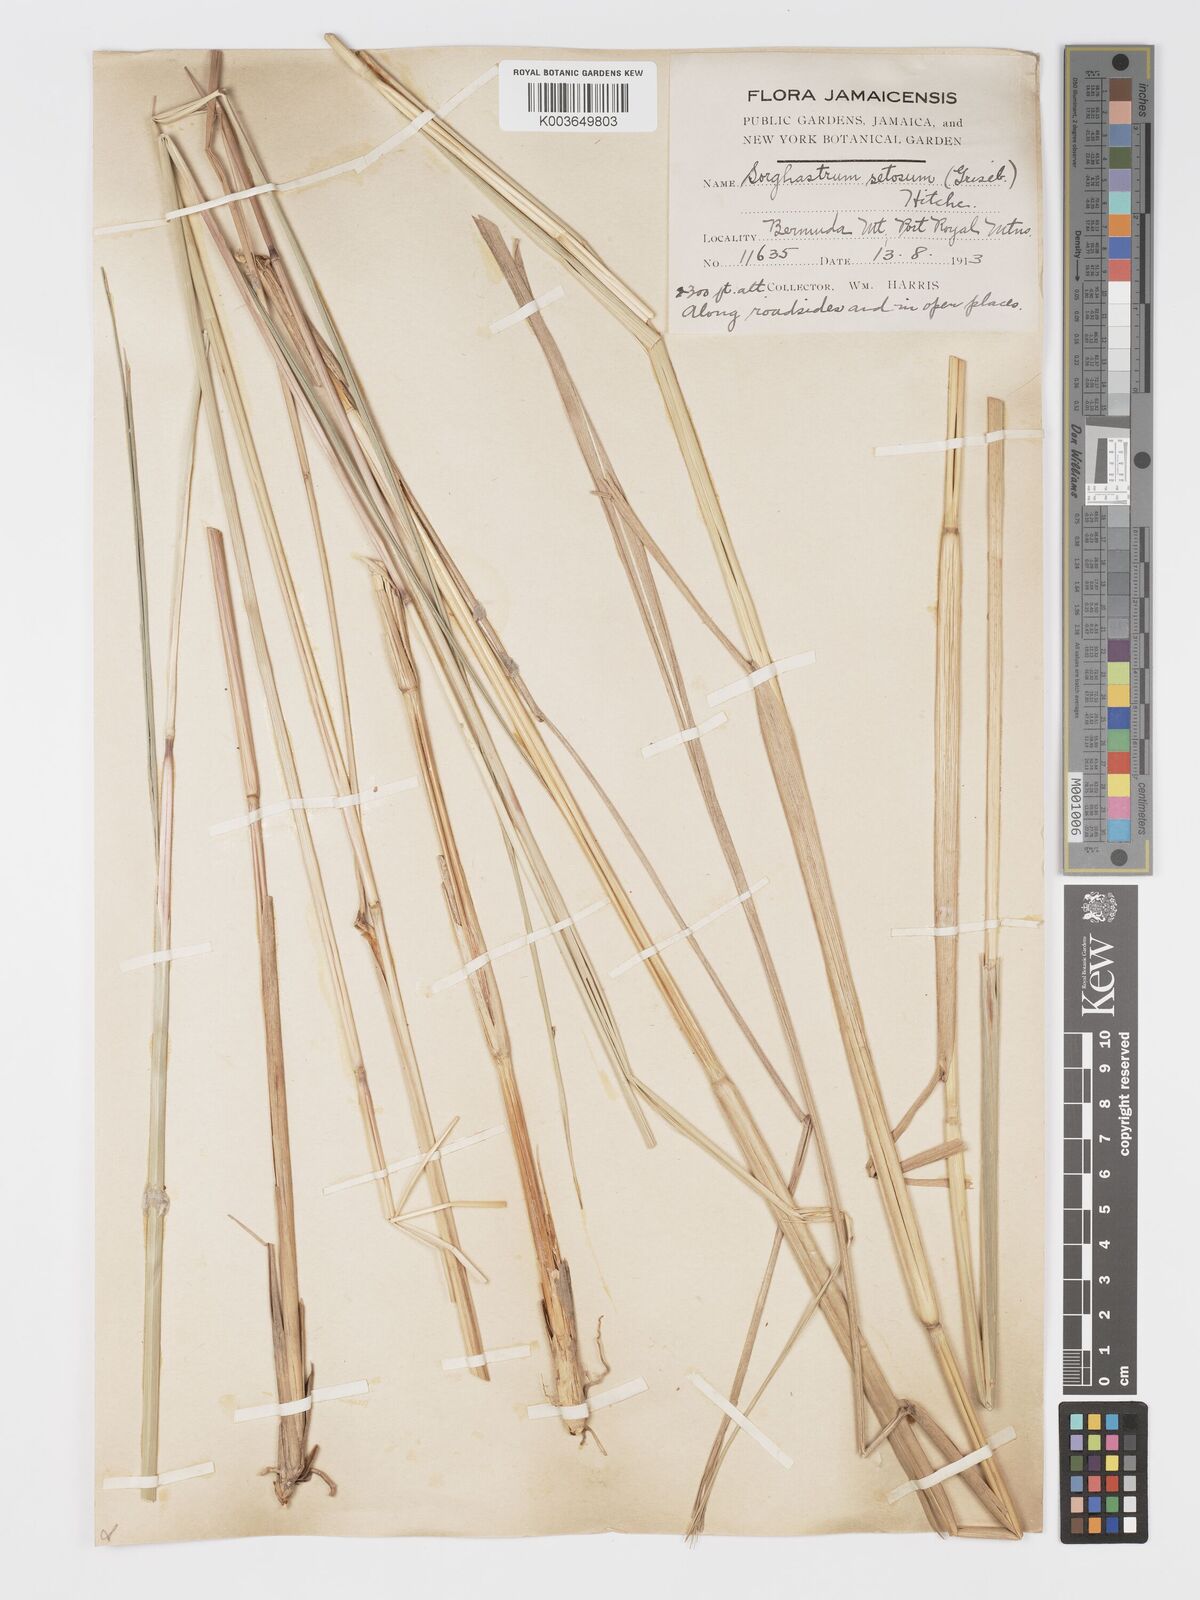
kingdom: Plantae
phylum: Tracheophyta
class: Liliopsida
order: Poales
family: Poaceae
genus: Sorghastrum
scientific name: Sorghastrum setosum
